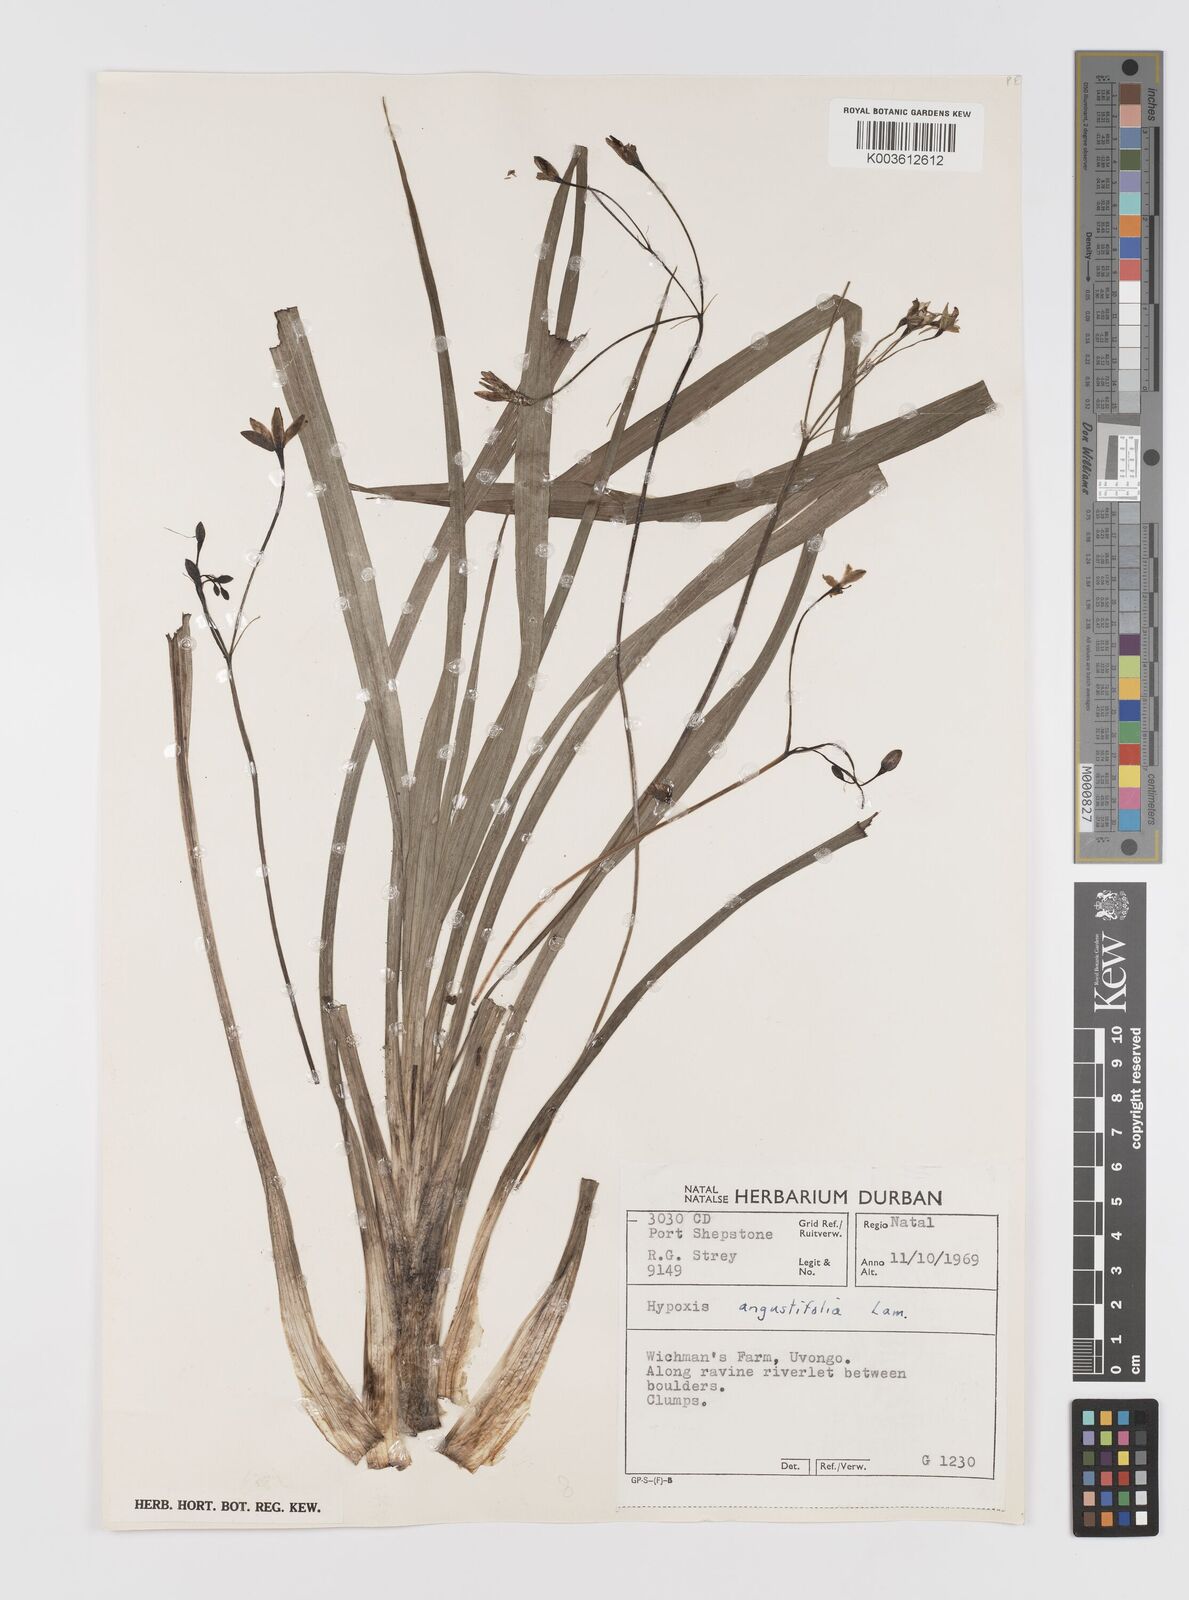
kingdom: Plantae
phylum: Tracheophyta
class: Liliopsida
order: Asparagales
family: Hypoxidaceae
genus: Hypoxis
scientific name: Hypoxis angustifolia
